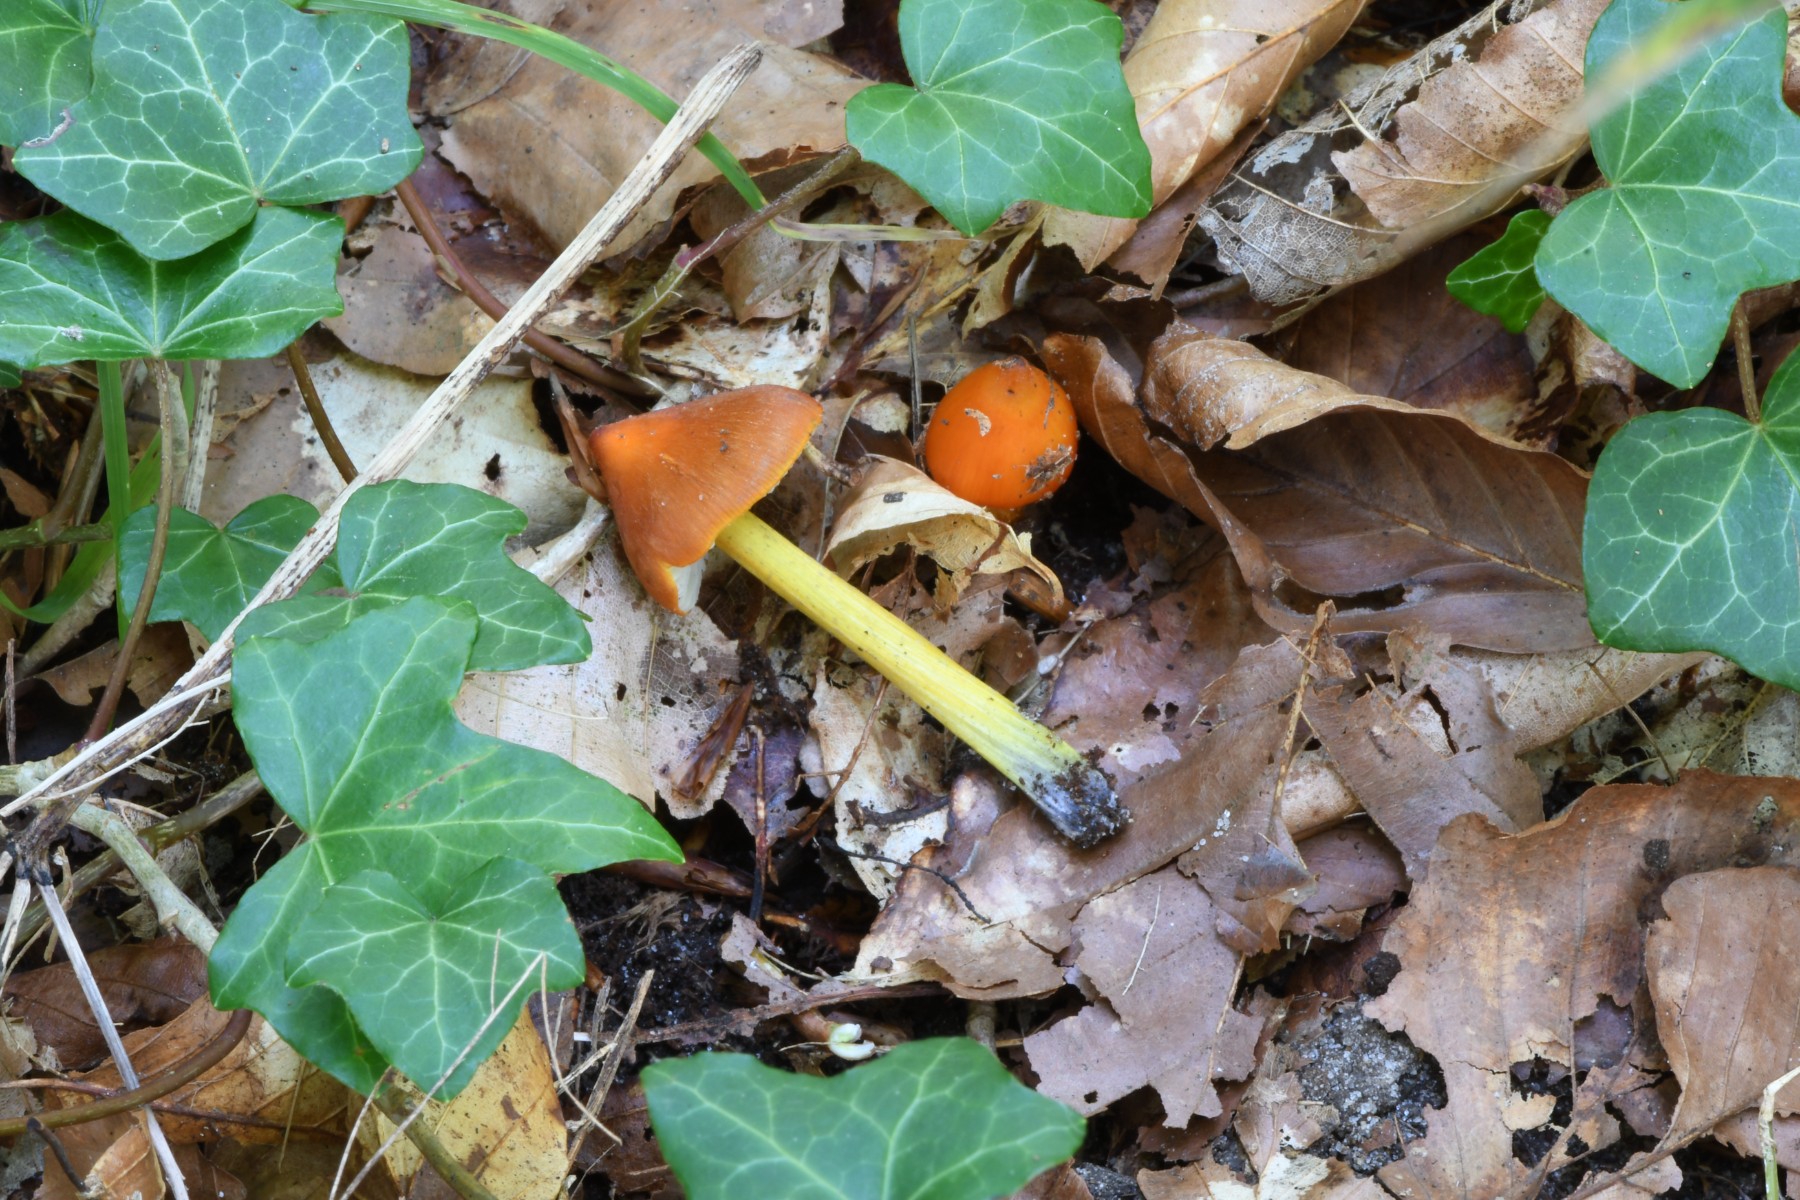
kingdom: Fungi
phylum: Basidiomycota
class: Agaricomycetes
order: Agaricales
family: Hygrophoraceae
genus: Hygrocybe
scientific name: Hygrocybe conica
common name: kegle-vokshat
